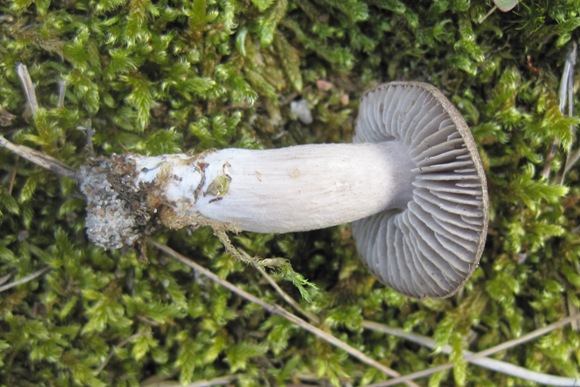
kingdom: Fungi
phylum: Basidiomycota
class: Agaricomycetes
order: Agaricales
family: Tricholomataceae
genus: Tricholoma
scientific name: Tricholoma terreum
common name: jordfarvet ridderhat
